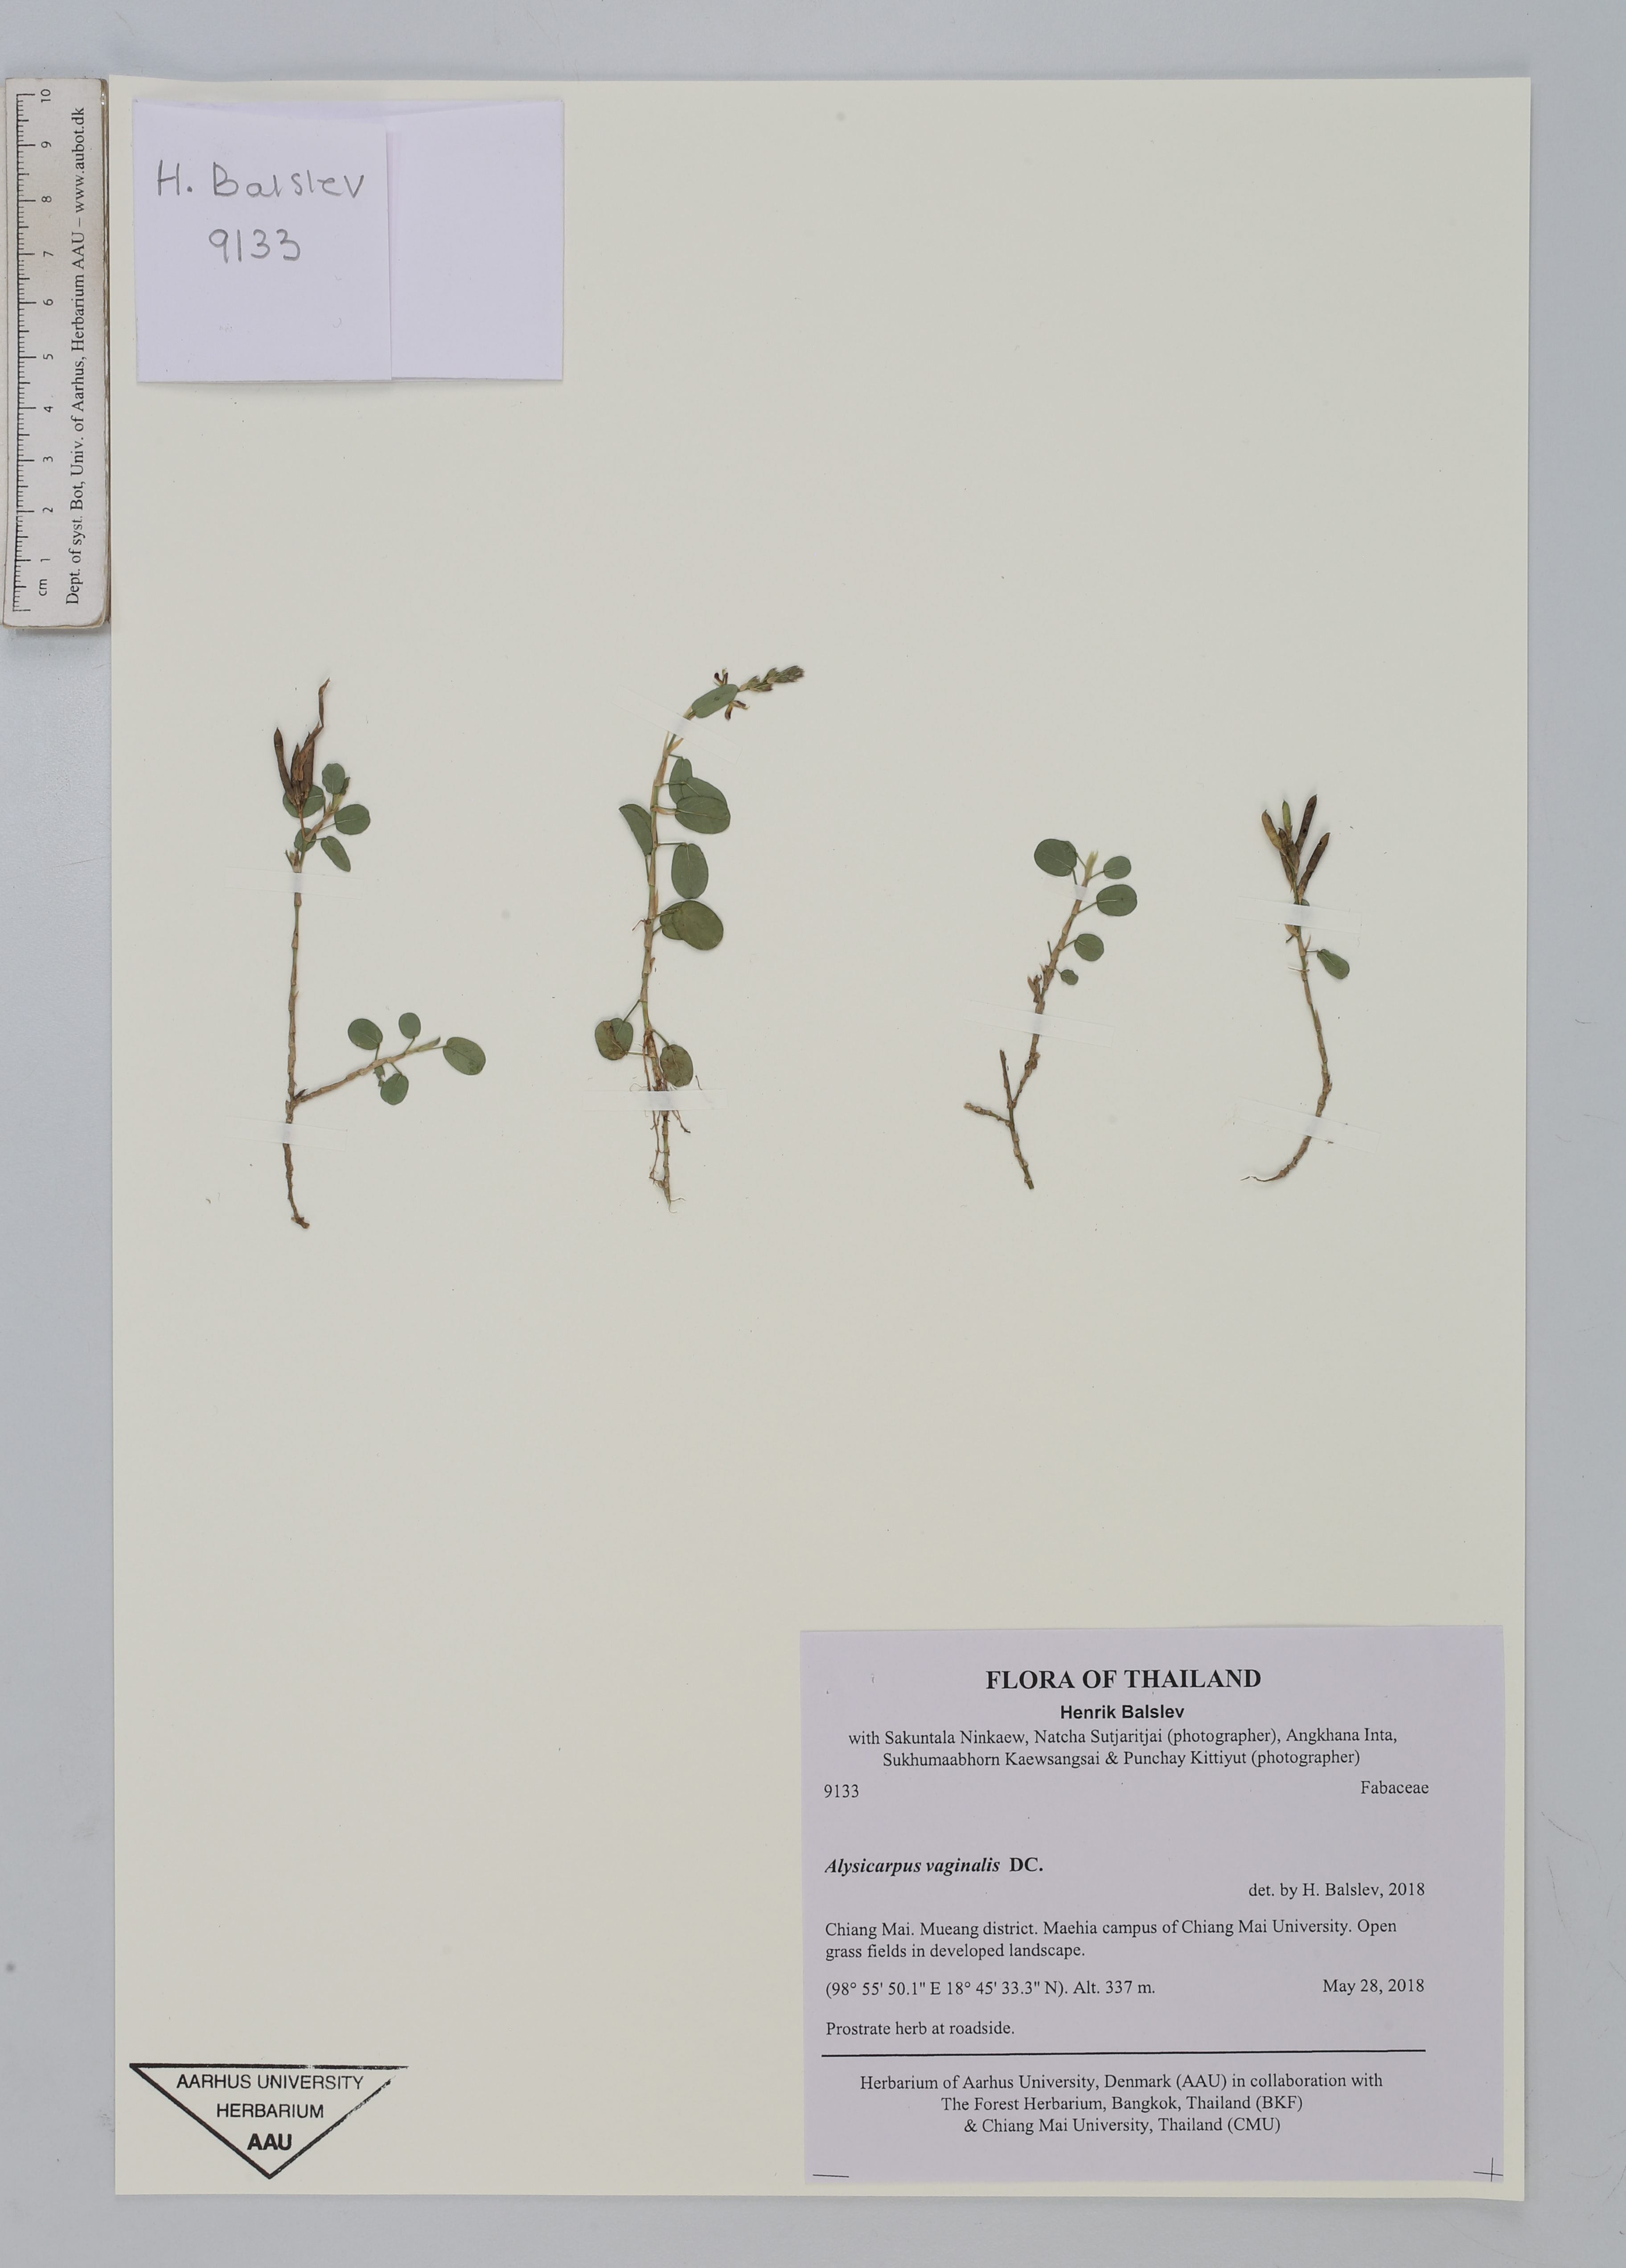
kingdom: Plantae
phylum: Tracheophyta
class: Magnoliopsida
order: Fabales
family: Fabaceae
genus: Alysicarpus
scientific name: Alysicarpus vaginalis
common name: White moneywort
